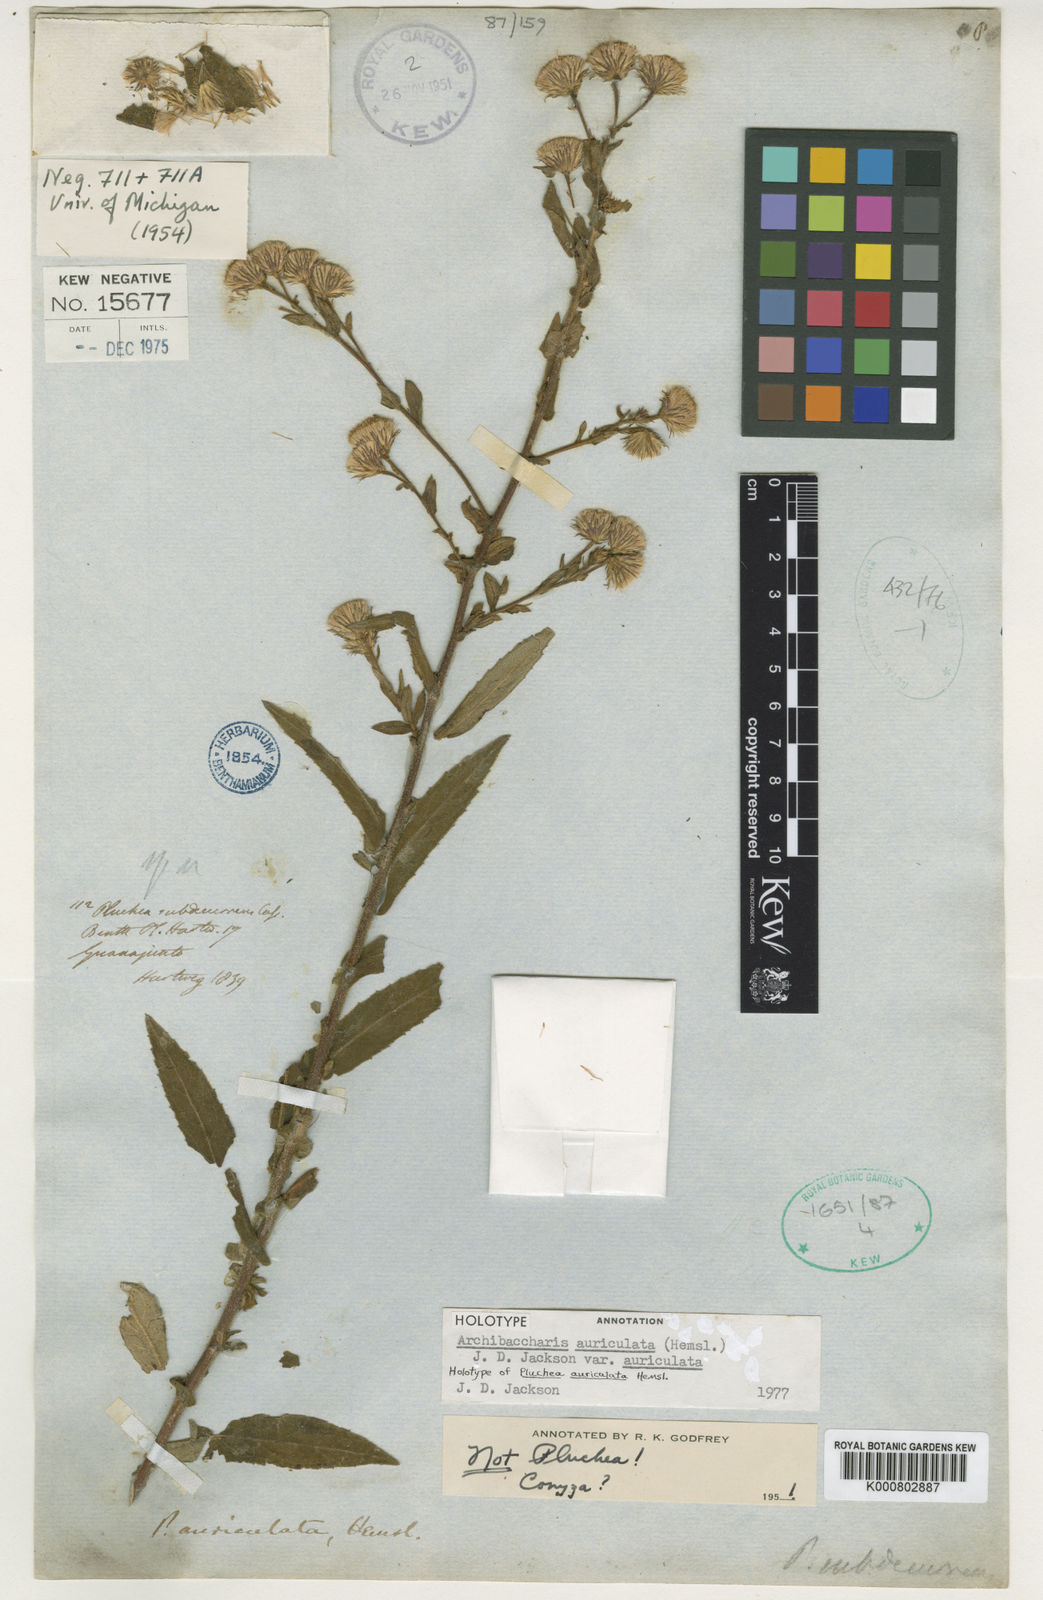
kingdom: Plantae
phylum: Tracheophyta
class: Magnoliopsida
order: Asterales
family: Asteraceae
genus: Archibaccharis
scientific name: Archibaccharis auriculata
